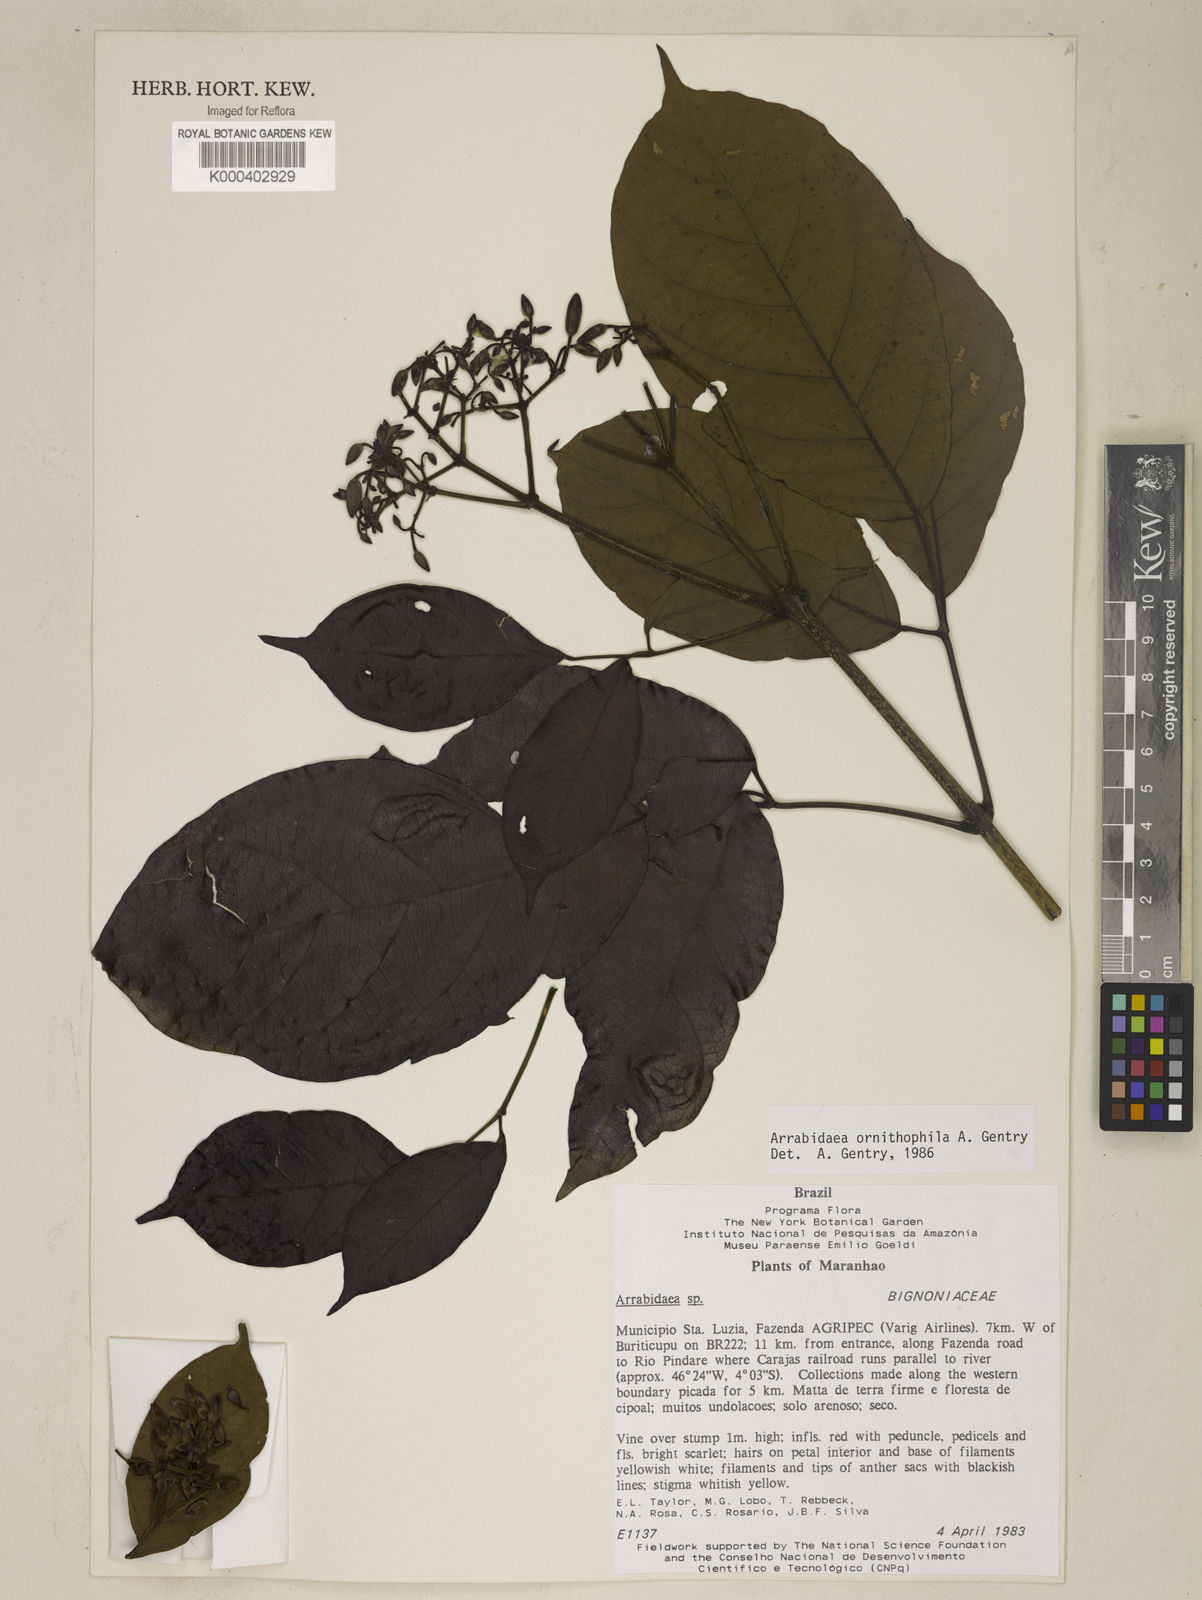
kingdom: Plantae
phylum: Tracheophyta
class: Magnoliopsida
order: Lamiales
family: Bignoniaceae
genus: Fridericia
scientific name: Fridericia ornithophila
